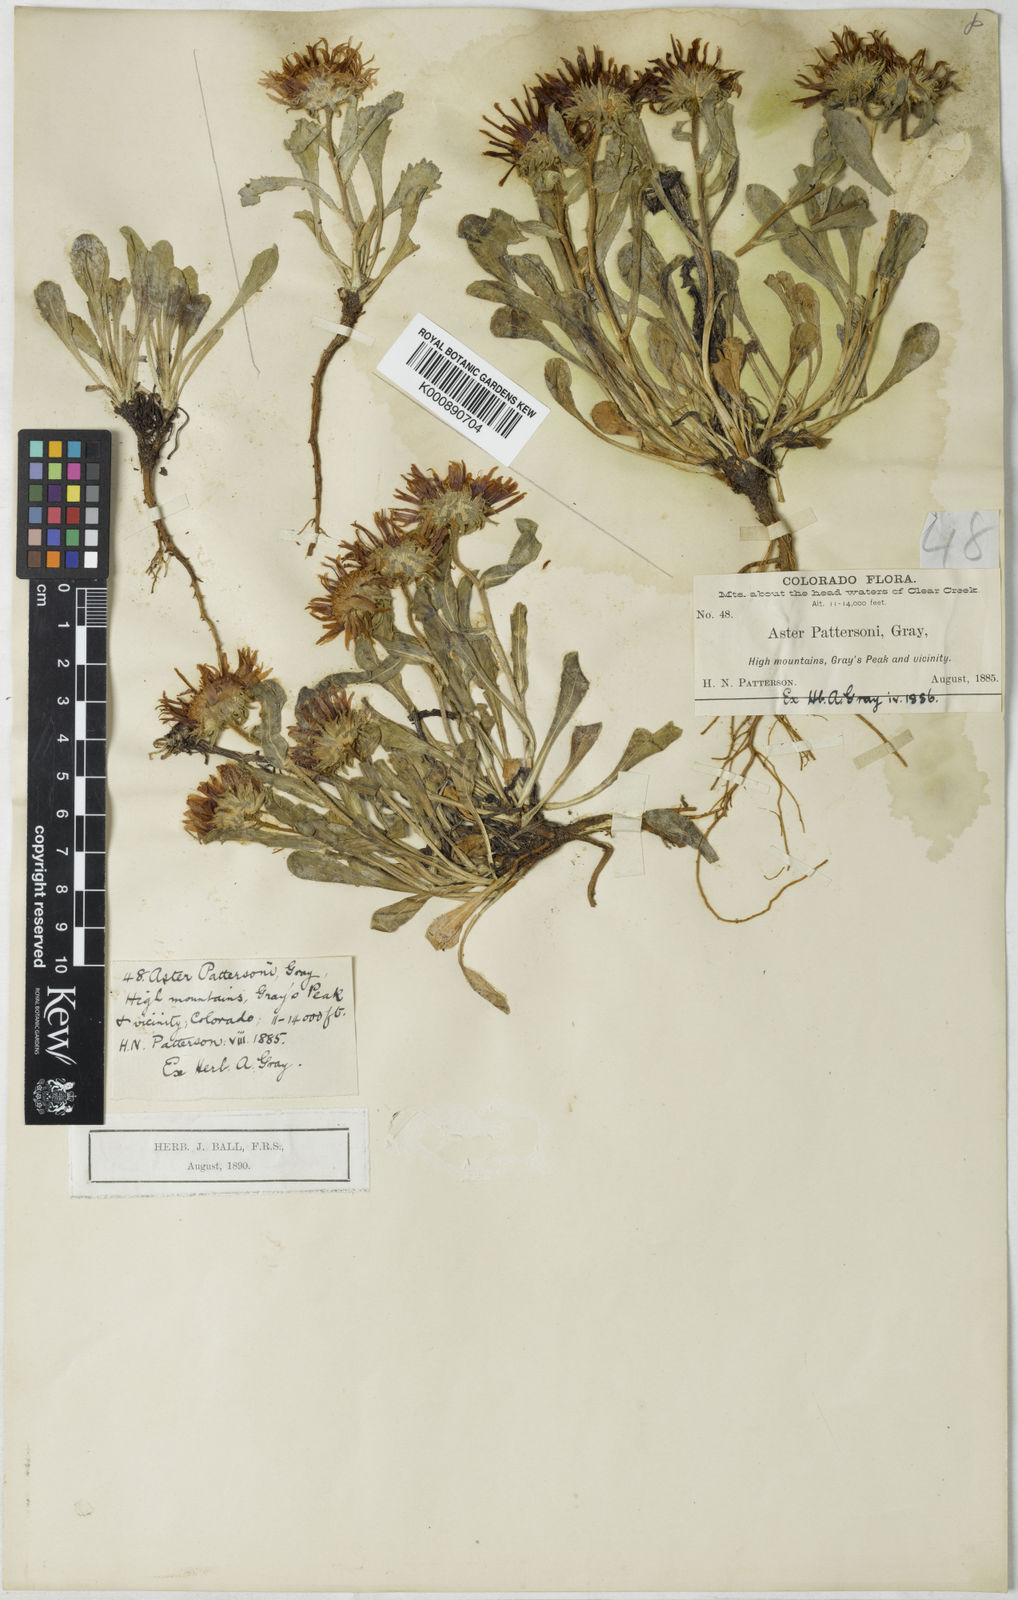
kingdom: Plantae
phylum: Tracheophyta
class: Magnoliopsida
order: Asterales
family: Asteraceae
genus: Dieteria
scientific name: Dieteria bigelovii
